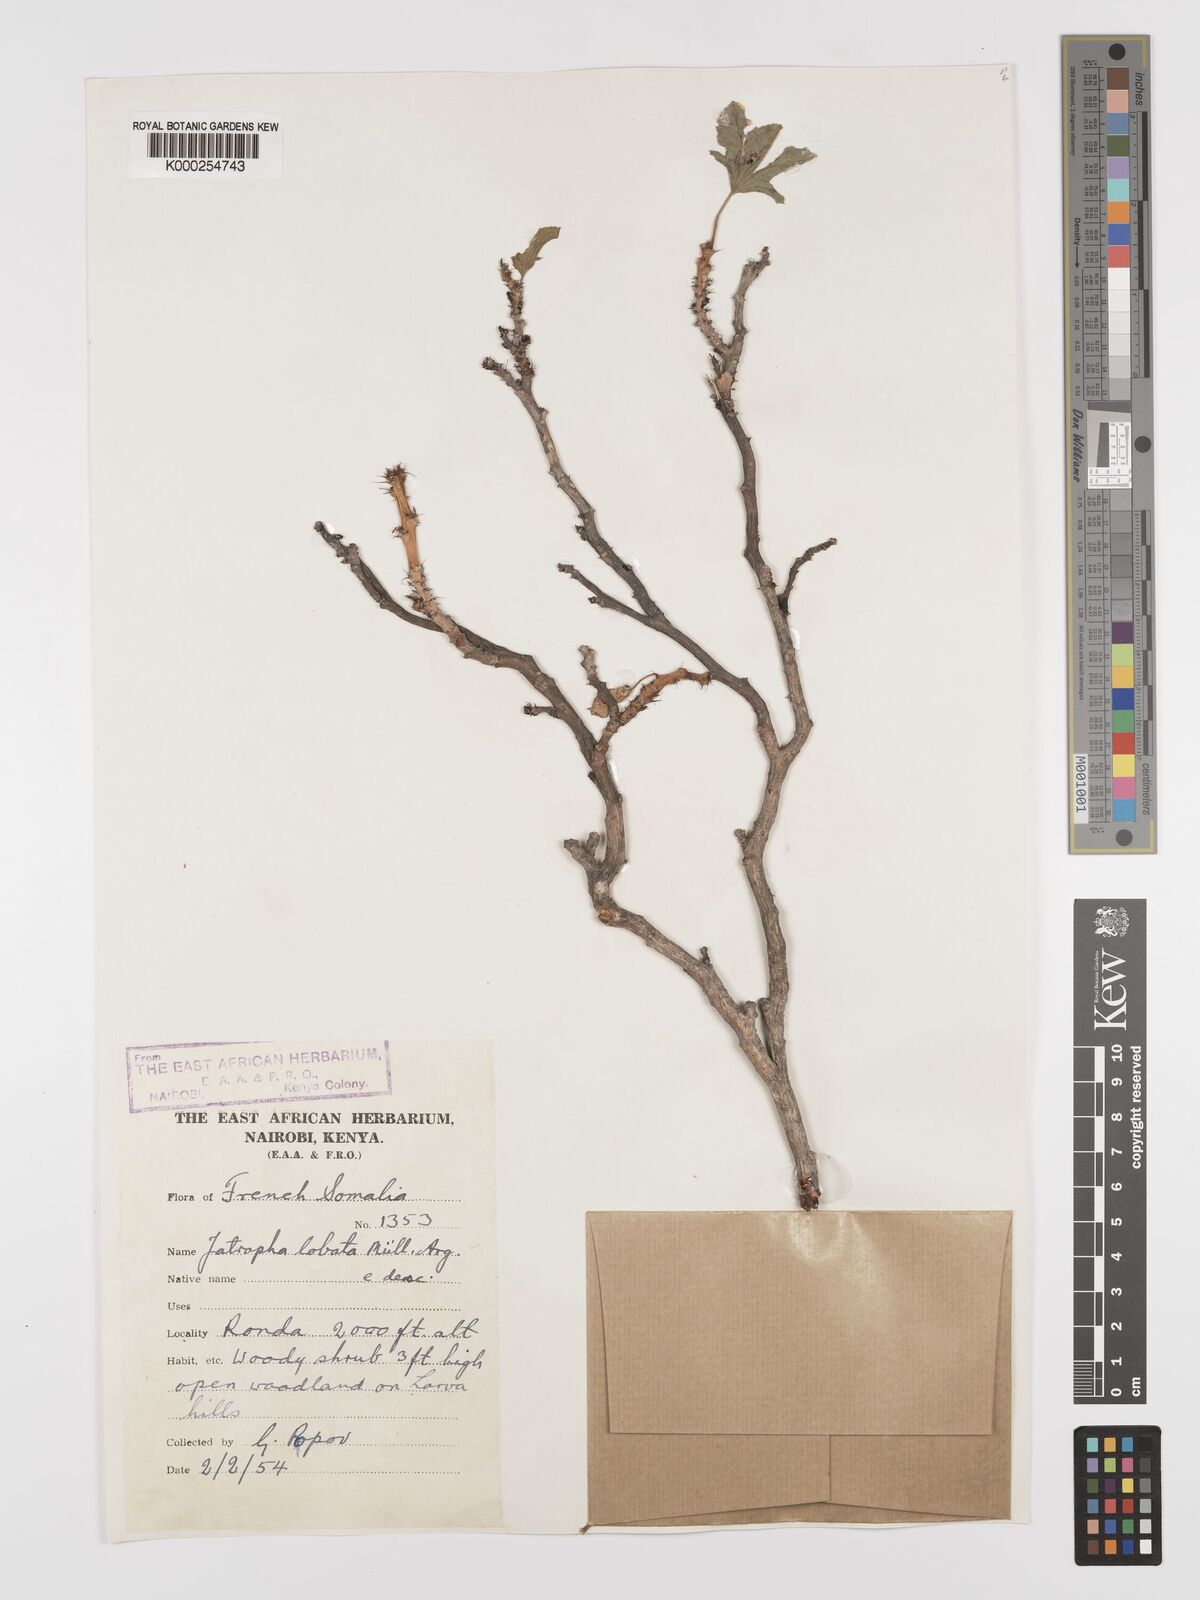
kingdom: Plantae
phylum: Tracheophyta
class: Magnoliopsida
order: Malpighiales
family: Euphorbiaceae
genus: Jatropha
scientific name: Jatropha glauca
